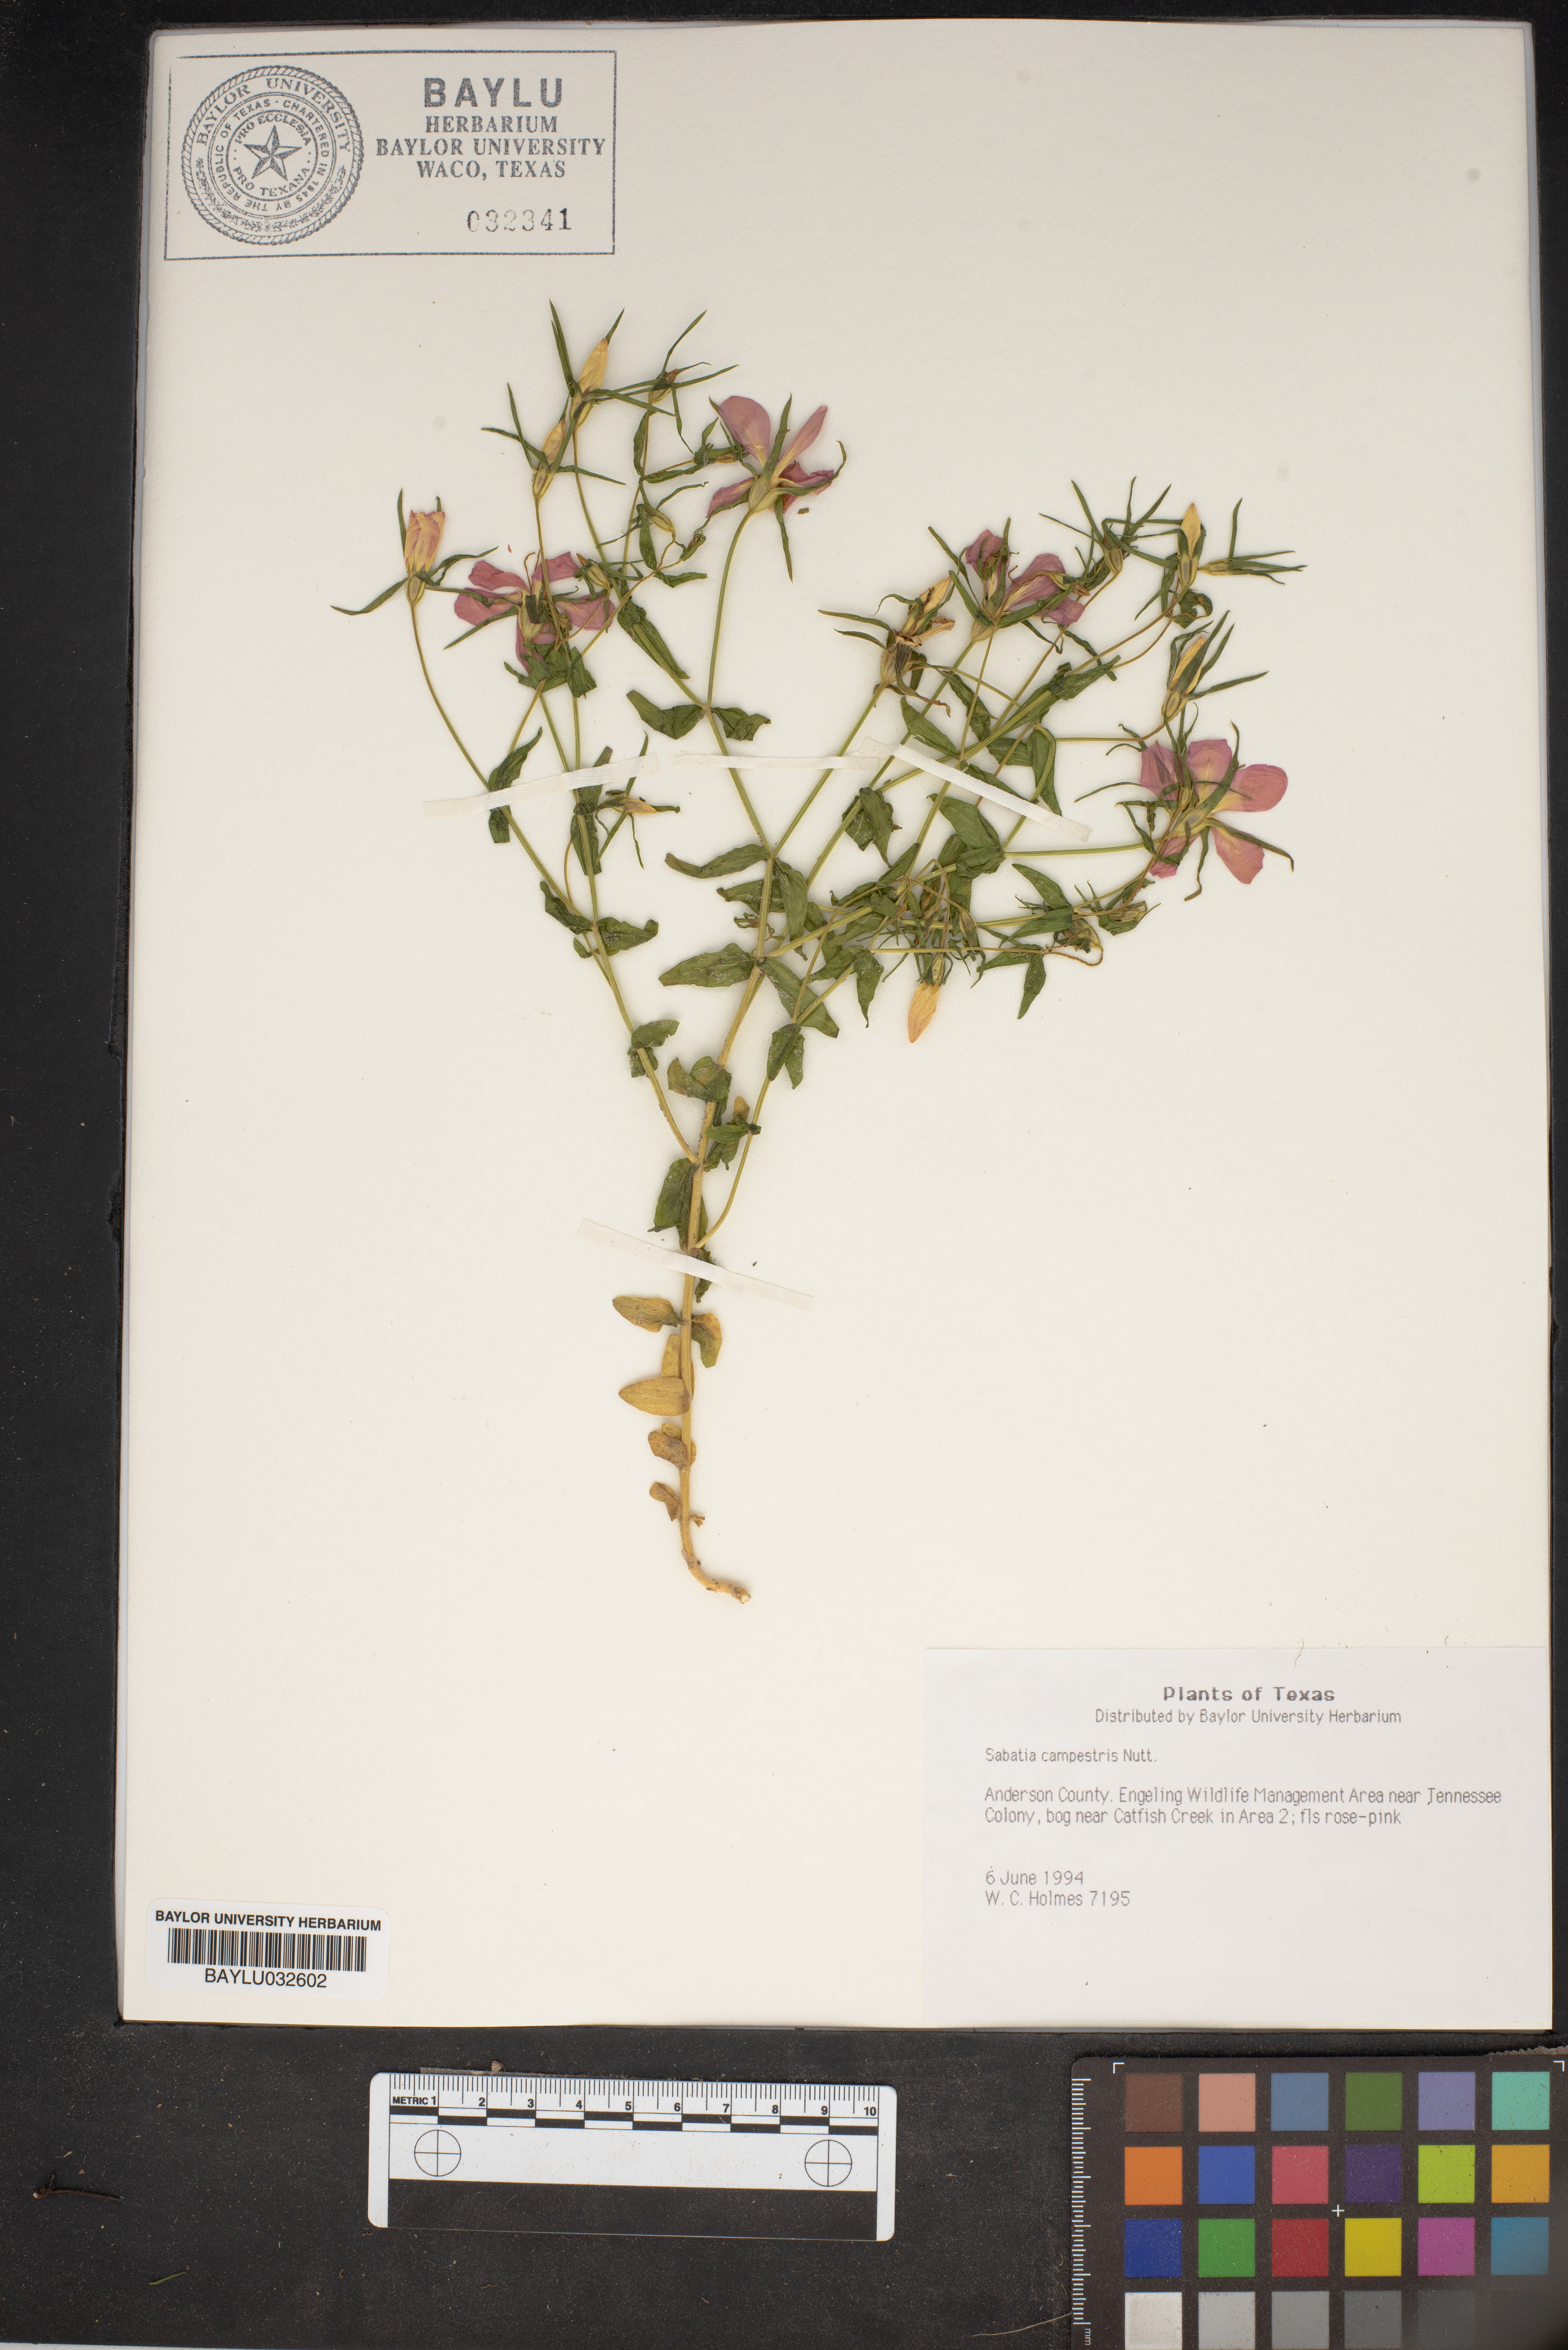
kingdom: Plantae
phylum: Tracheophyta
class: Magnoliopsida
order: Gentianales
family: Gentianaceae
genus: Sabatia
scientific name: Sabatia campestris
